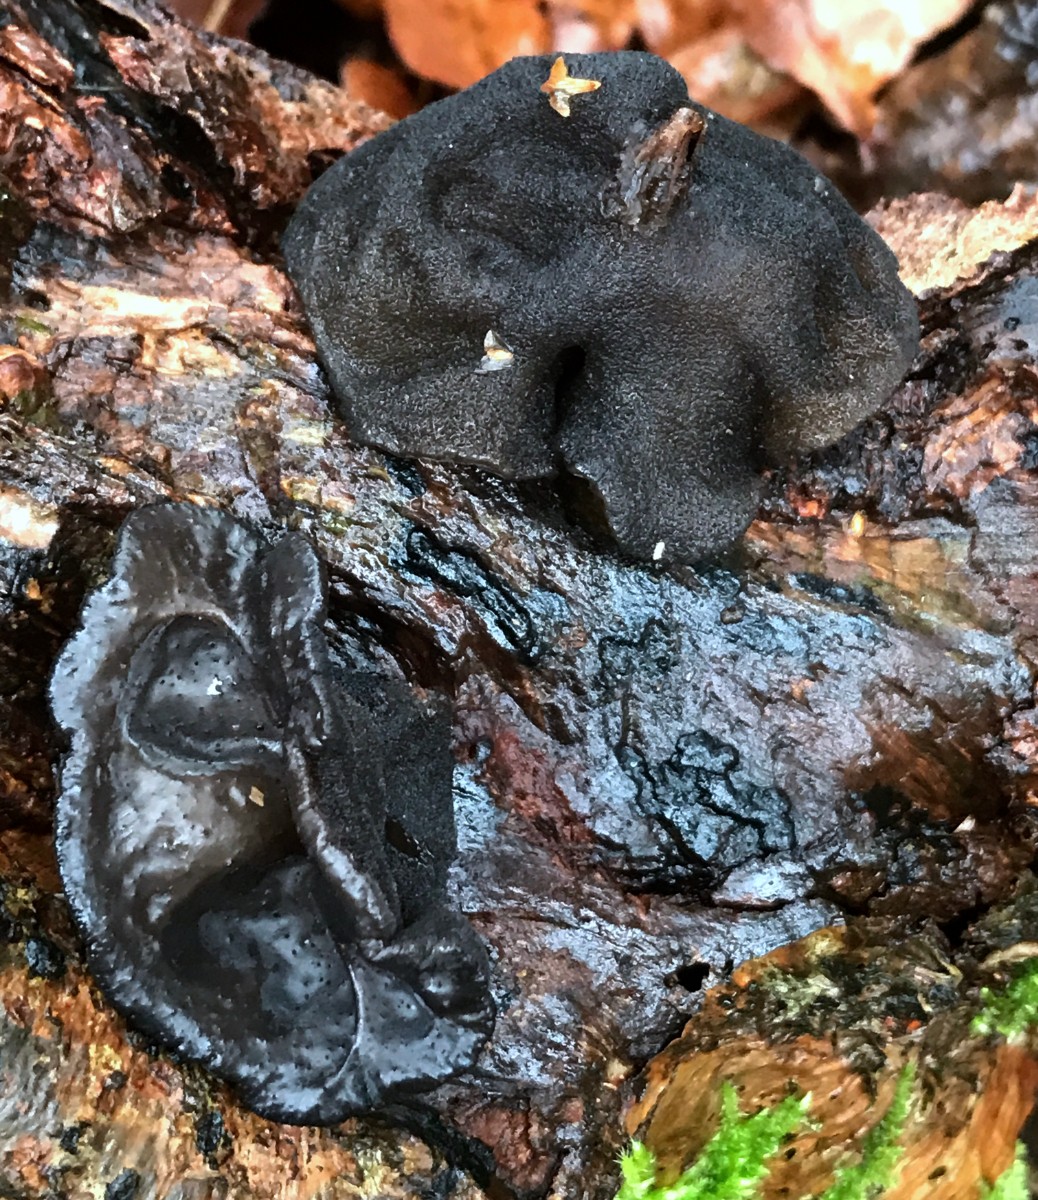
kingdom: Fungi
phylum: Basidiomycota
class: Agaricomycetes
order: Auriculariales
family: Auriculariaceae
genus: Exidia
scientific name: Exidia glandulosa
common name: ege-bævretop
